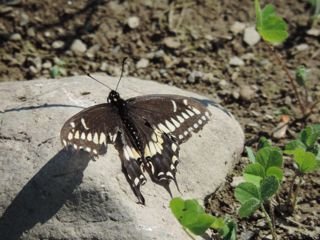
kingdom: Animalia
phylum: Arthropoda
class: Insecta
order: Lepidoptera
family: Papilionidae
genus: Papilio
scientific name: Papilio polyxenes
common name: Black Swallowtail
